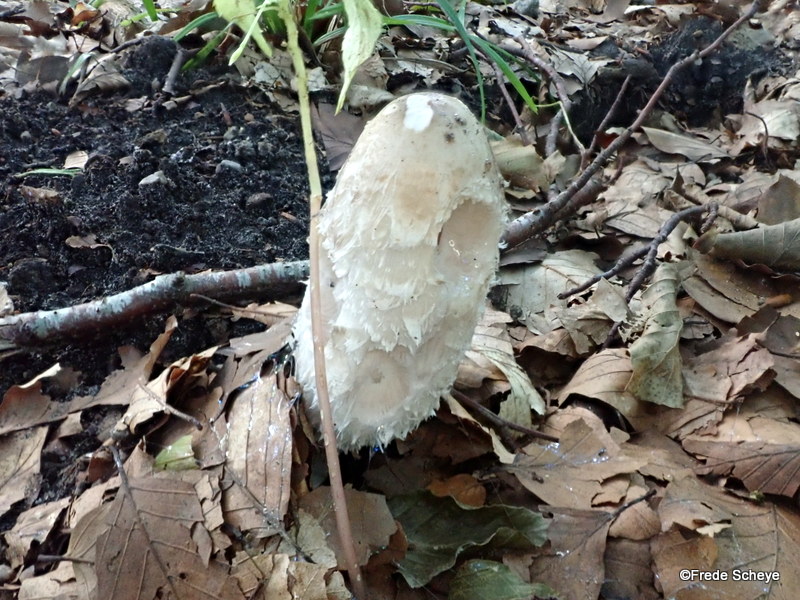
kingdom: Fungi
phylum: Basidiomycota
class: Agaricomycetes
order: Agaricales
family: Agaricaceae
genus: Coprinus
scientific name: Coprinus comatus
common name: stor parykhat
